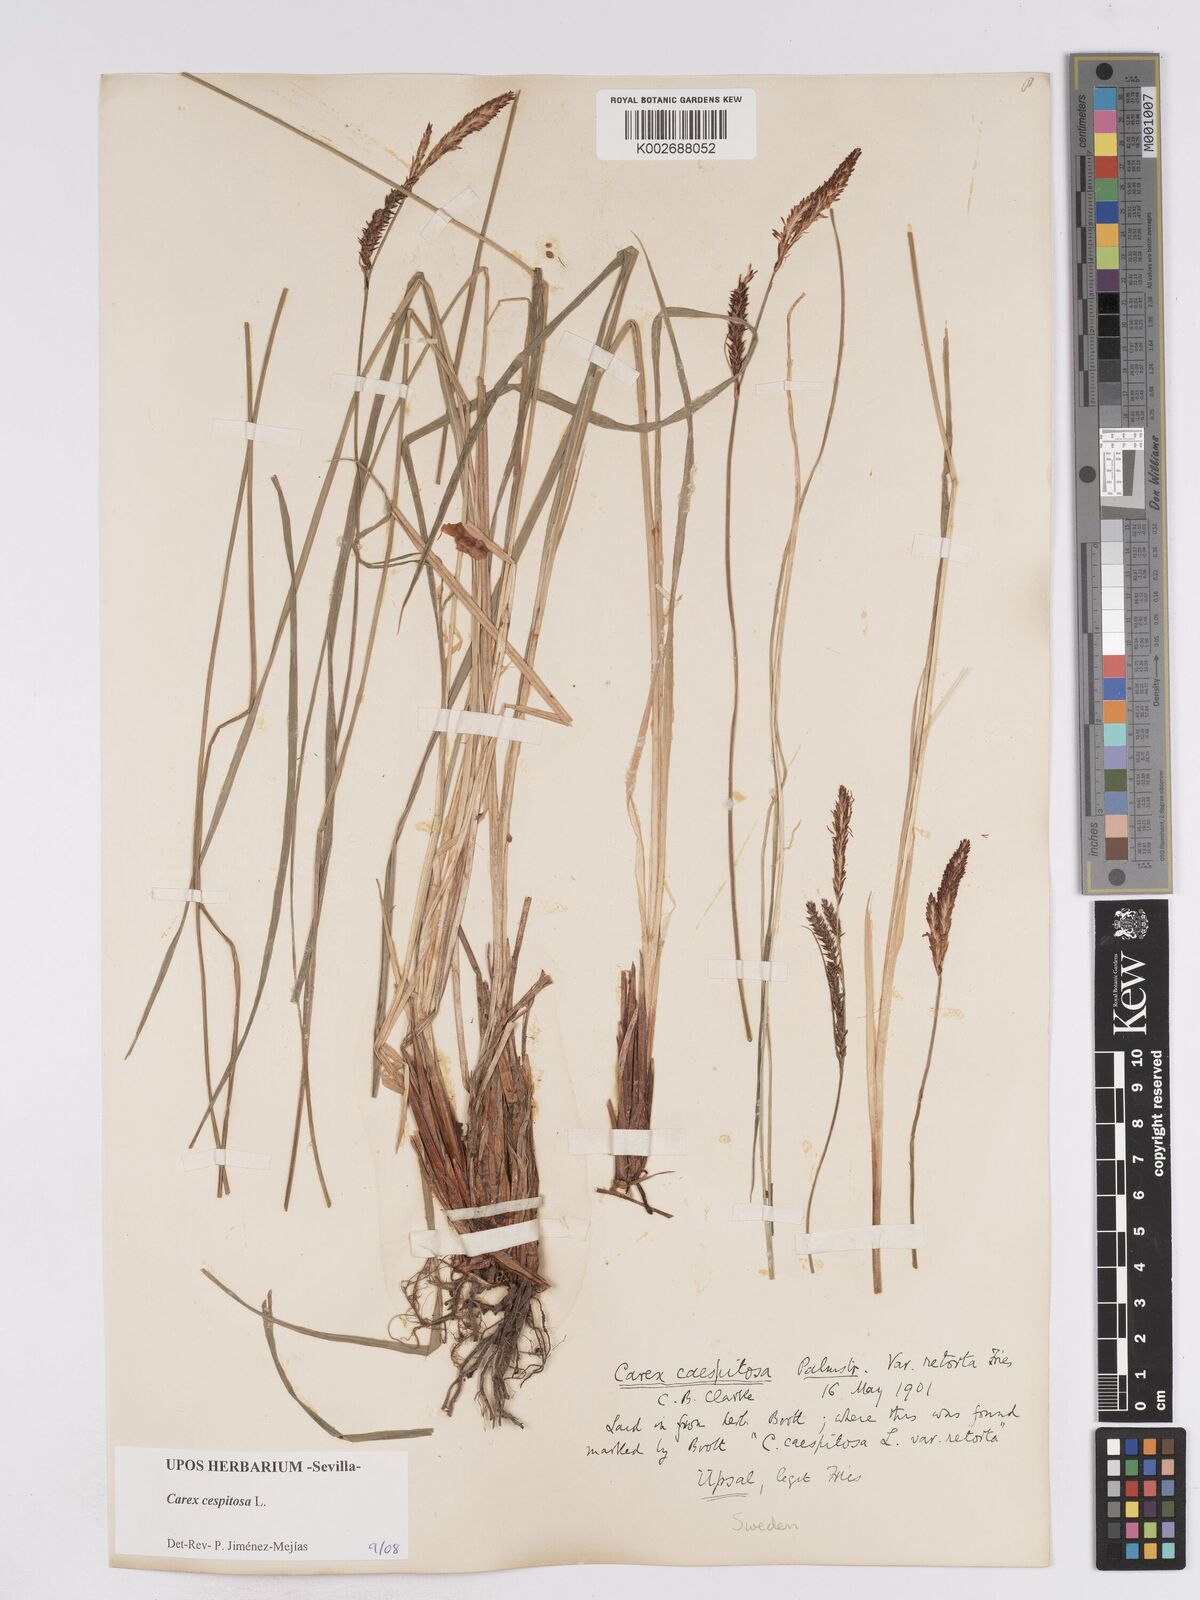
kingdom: Plantae
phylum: Tracheophyta
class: Liliopsida
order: Poales
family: Cyperaceae
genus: Carex
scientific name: Carex
